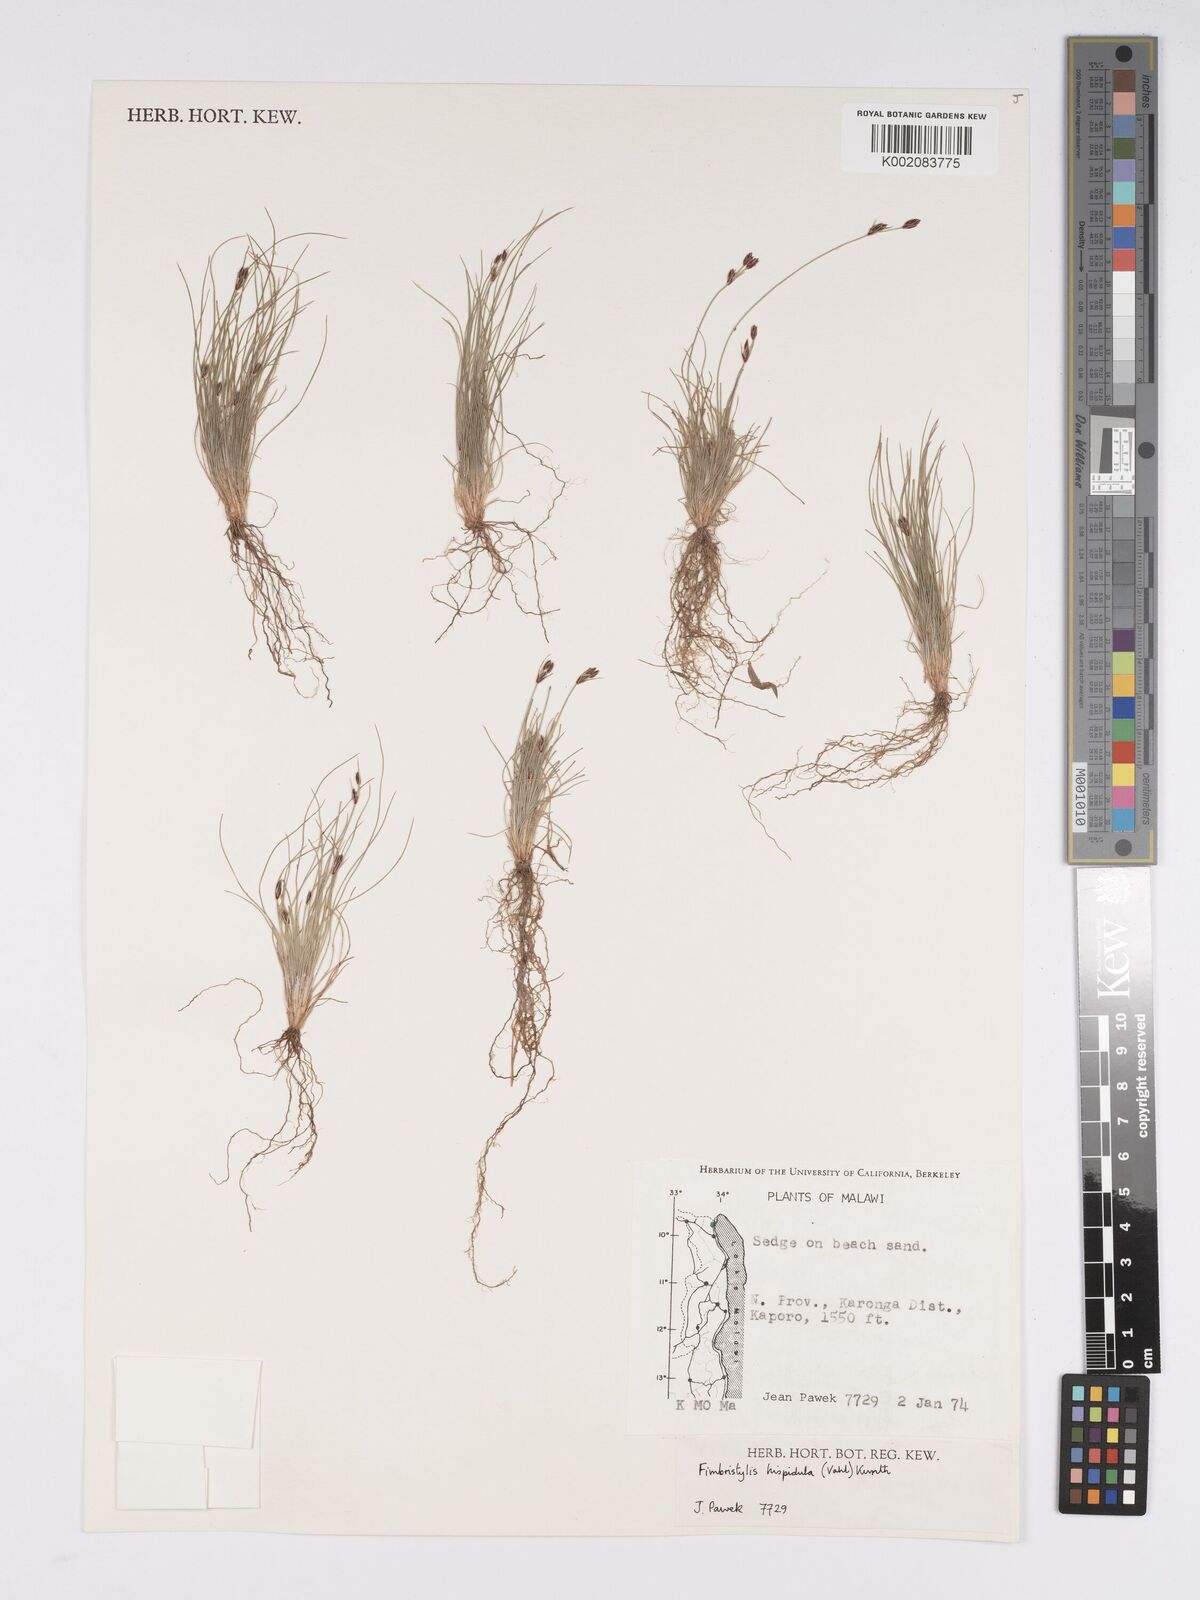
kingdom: Plantae
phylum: Tracheophyta
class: Liliopsida
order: Poales
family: Cyperaceae
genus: Bulbostylis
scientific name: Bulbostylis hispidula
